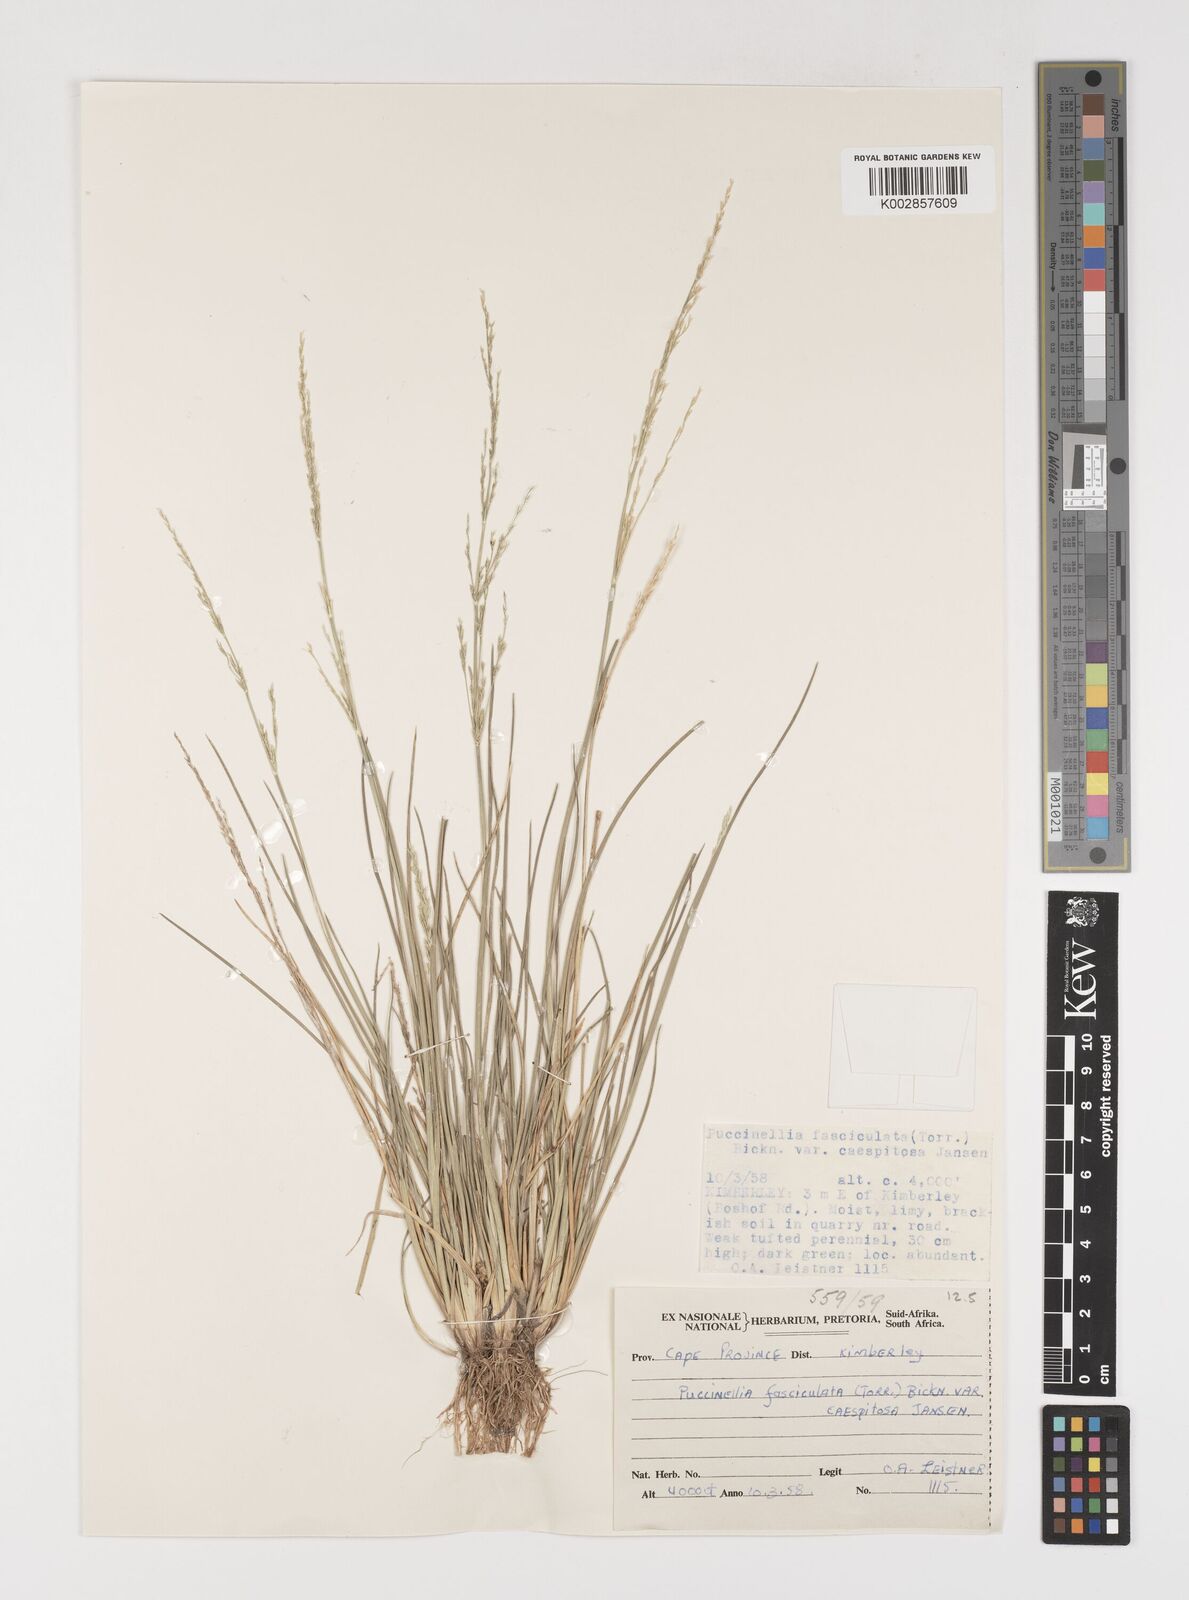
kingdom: Plantae
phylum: Tracheophyta
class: Liliopsida
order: Poales
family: Poaceae
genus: Puccinellia
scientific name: Puccinellia fasciculata
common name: Borrer's saltmarsh-grass
